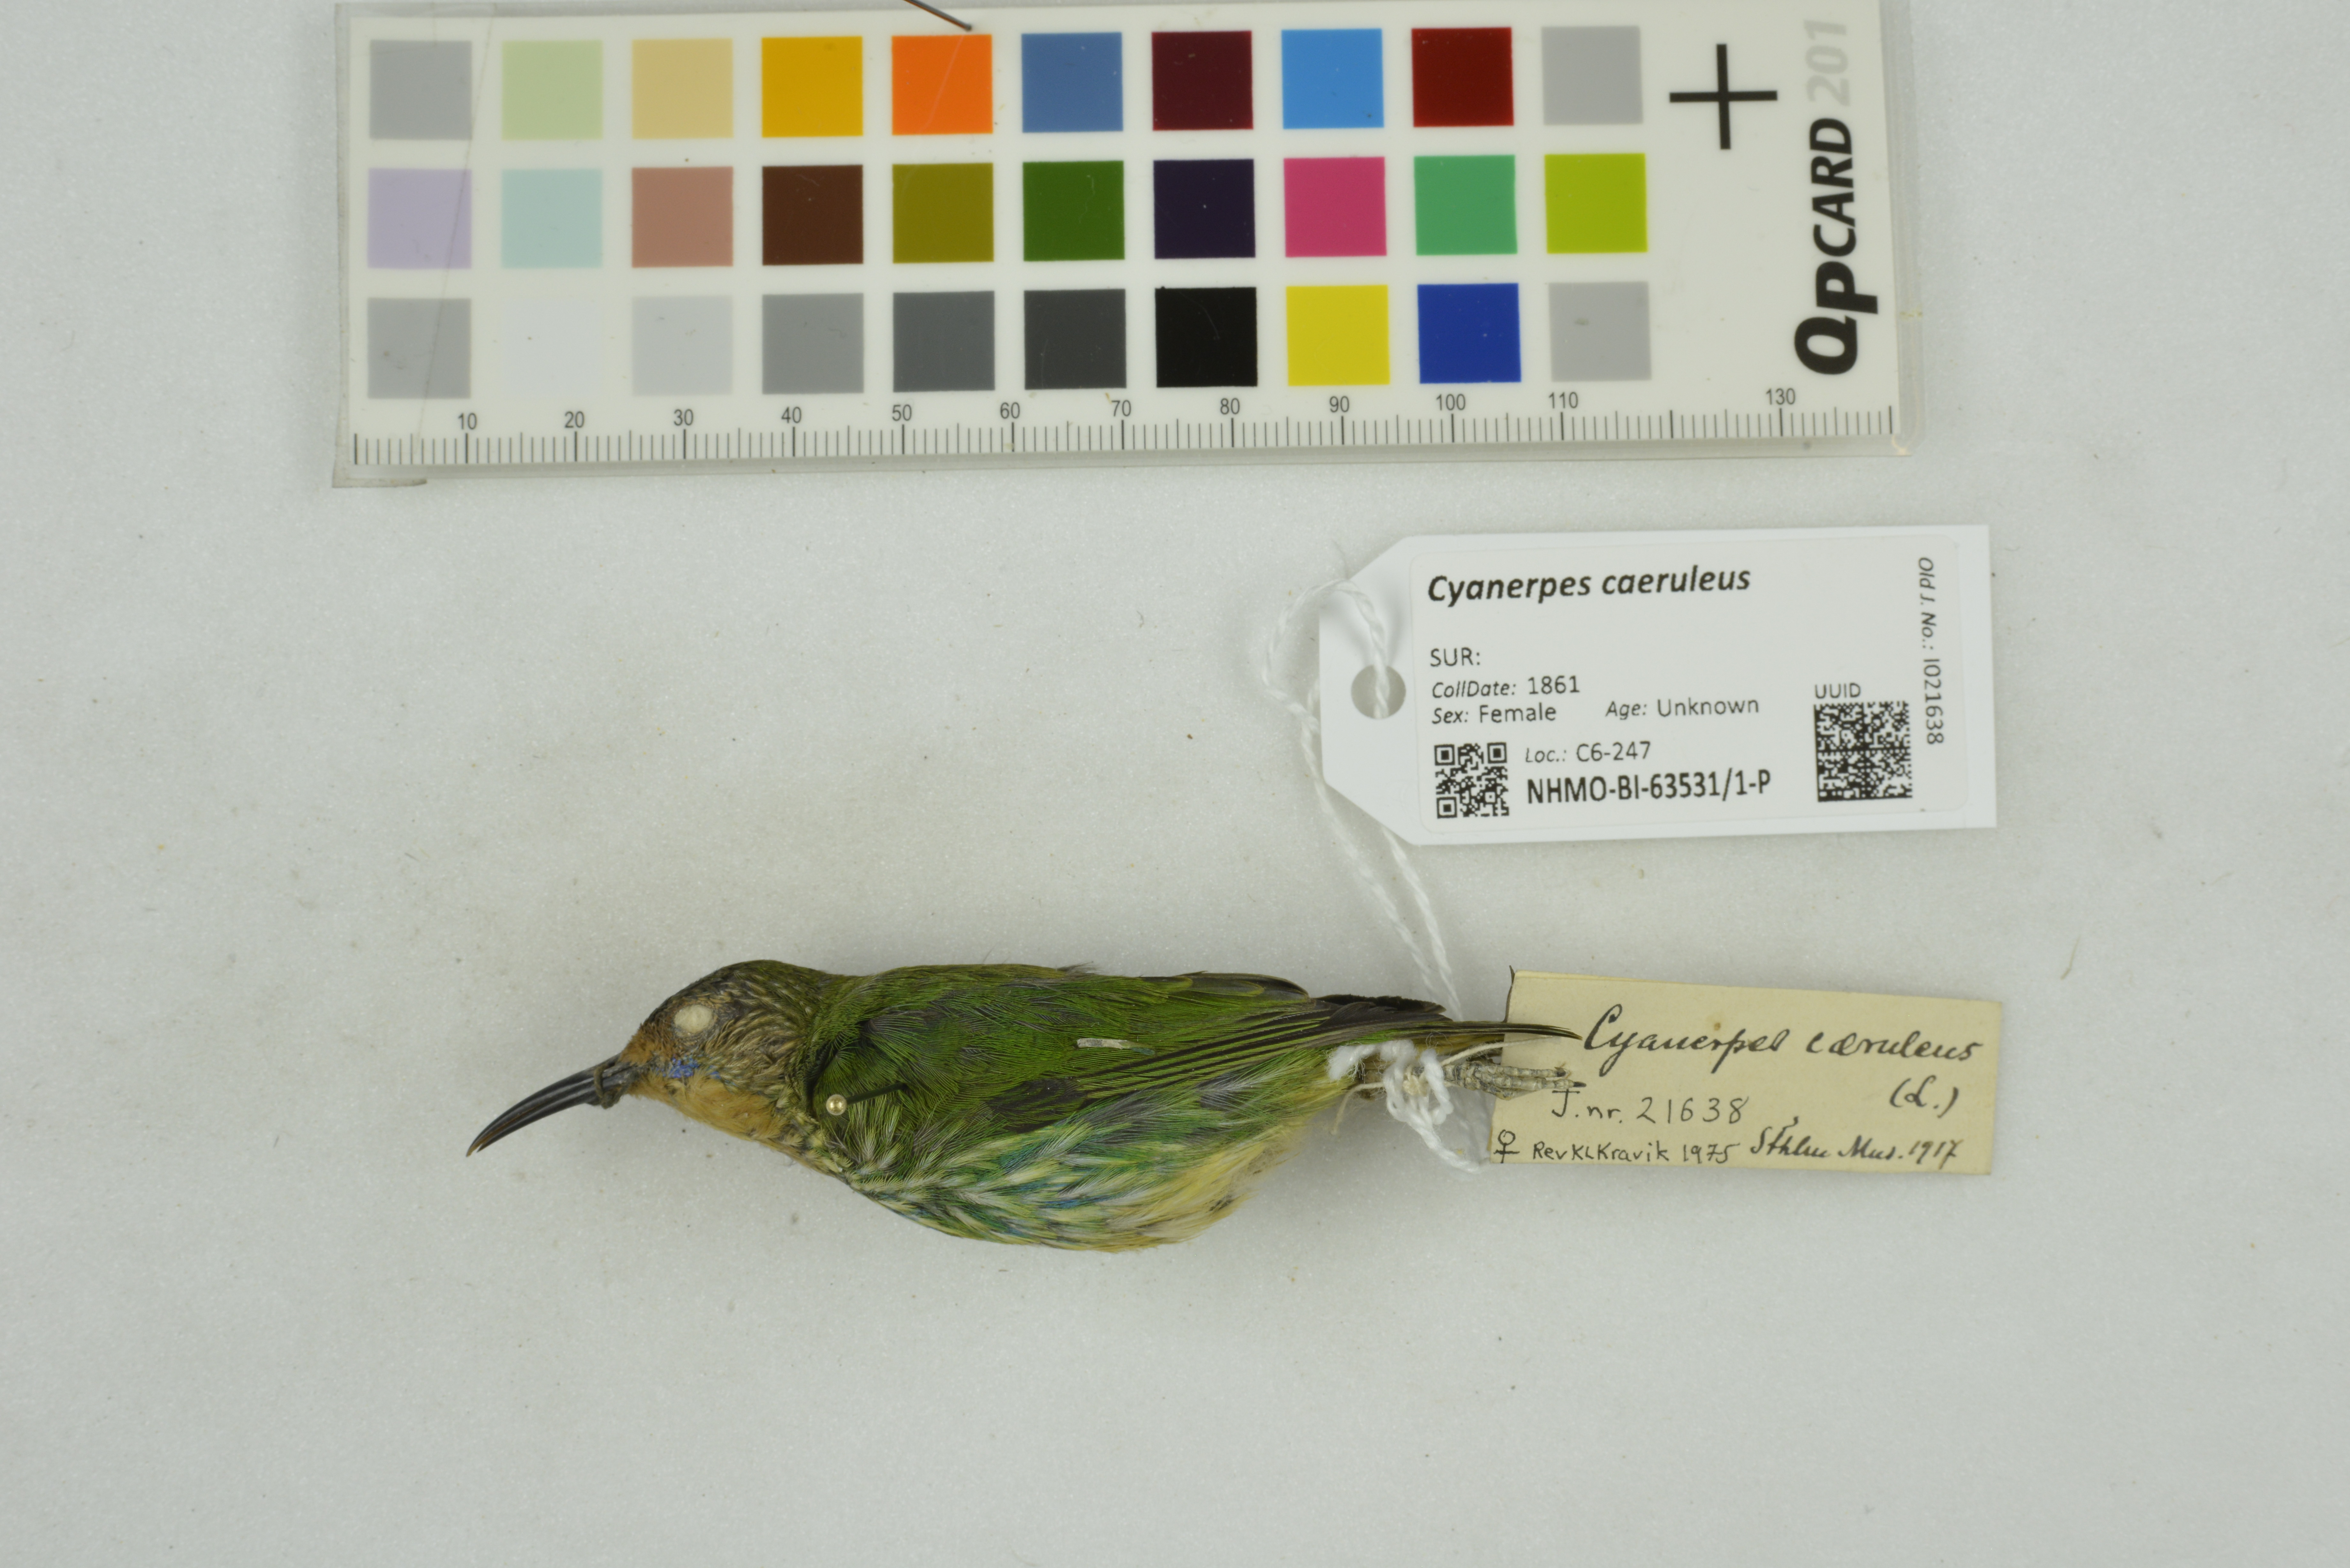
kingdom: Animalia
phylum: Chordata
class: Aves
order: Passeriformes
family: Thraupidae
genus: Cyanerpes
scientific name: Cyanerpes caeruleus
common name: Purple honeycreeper
